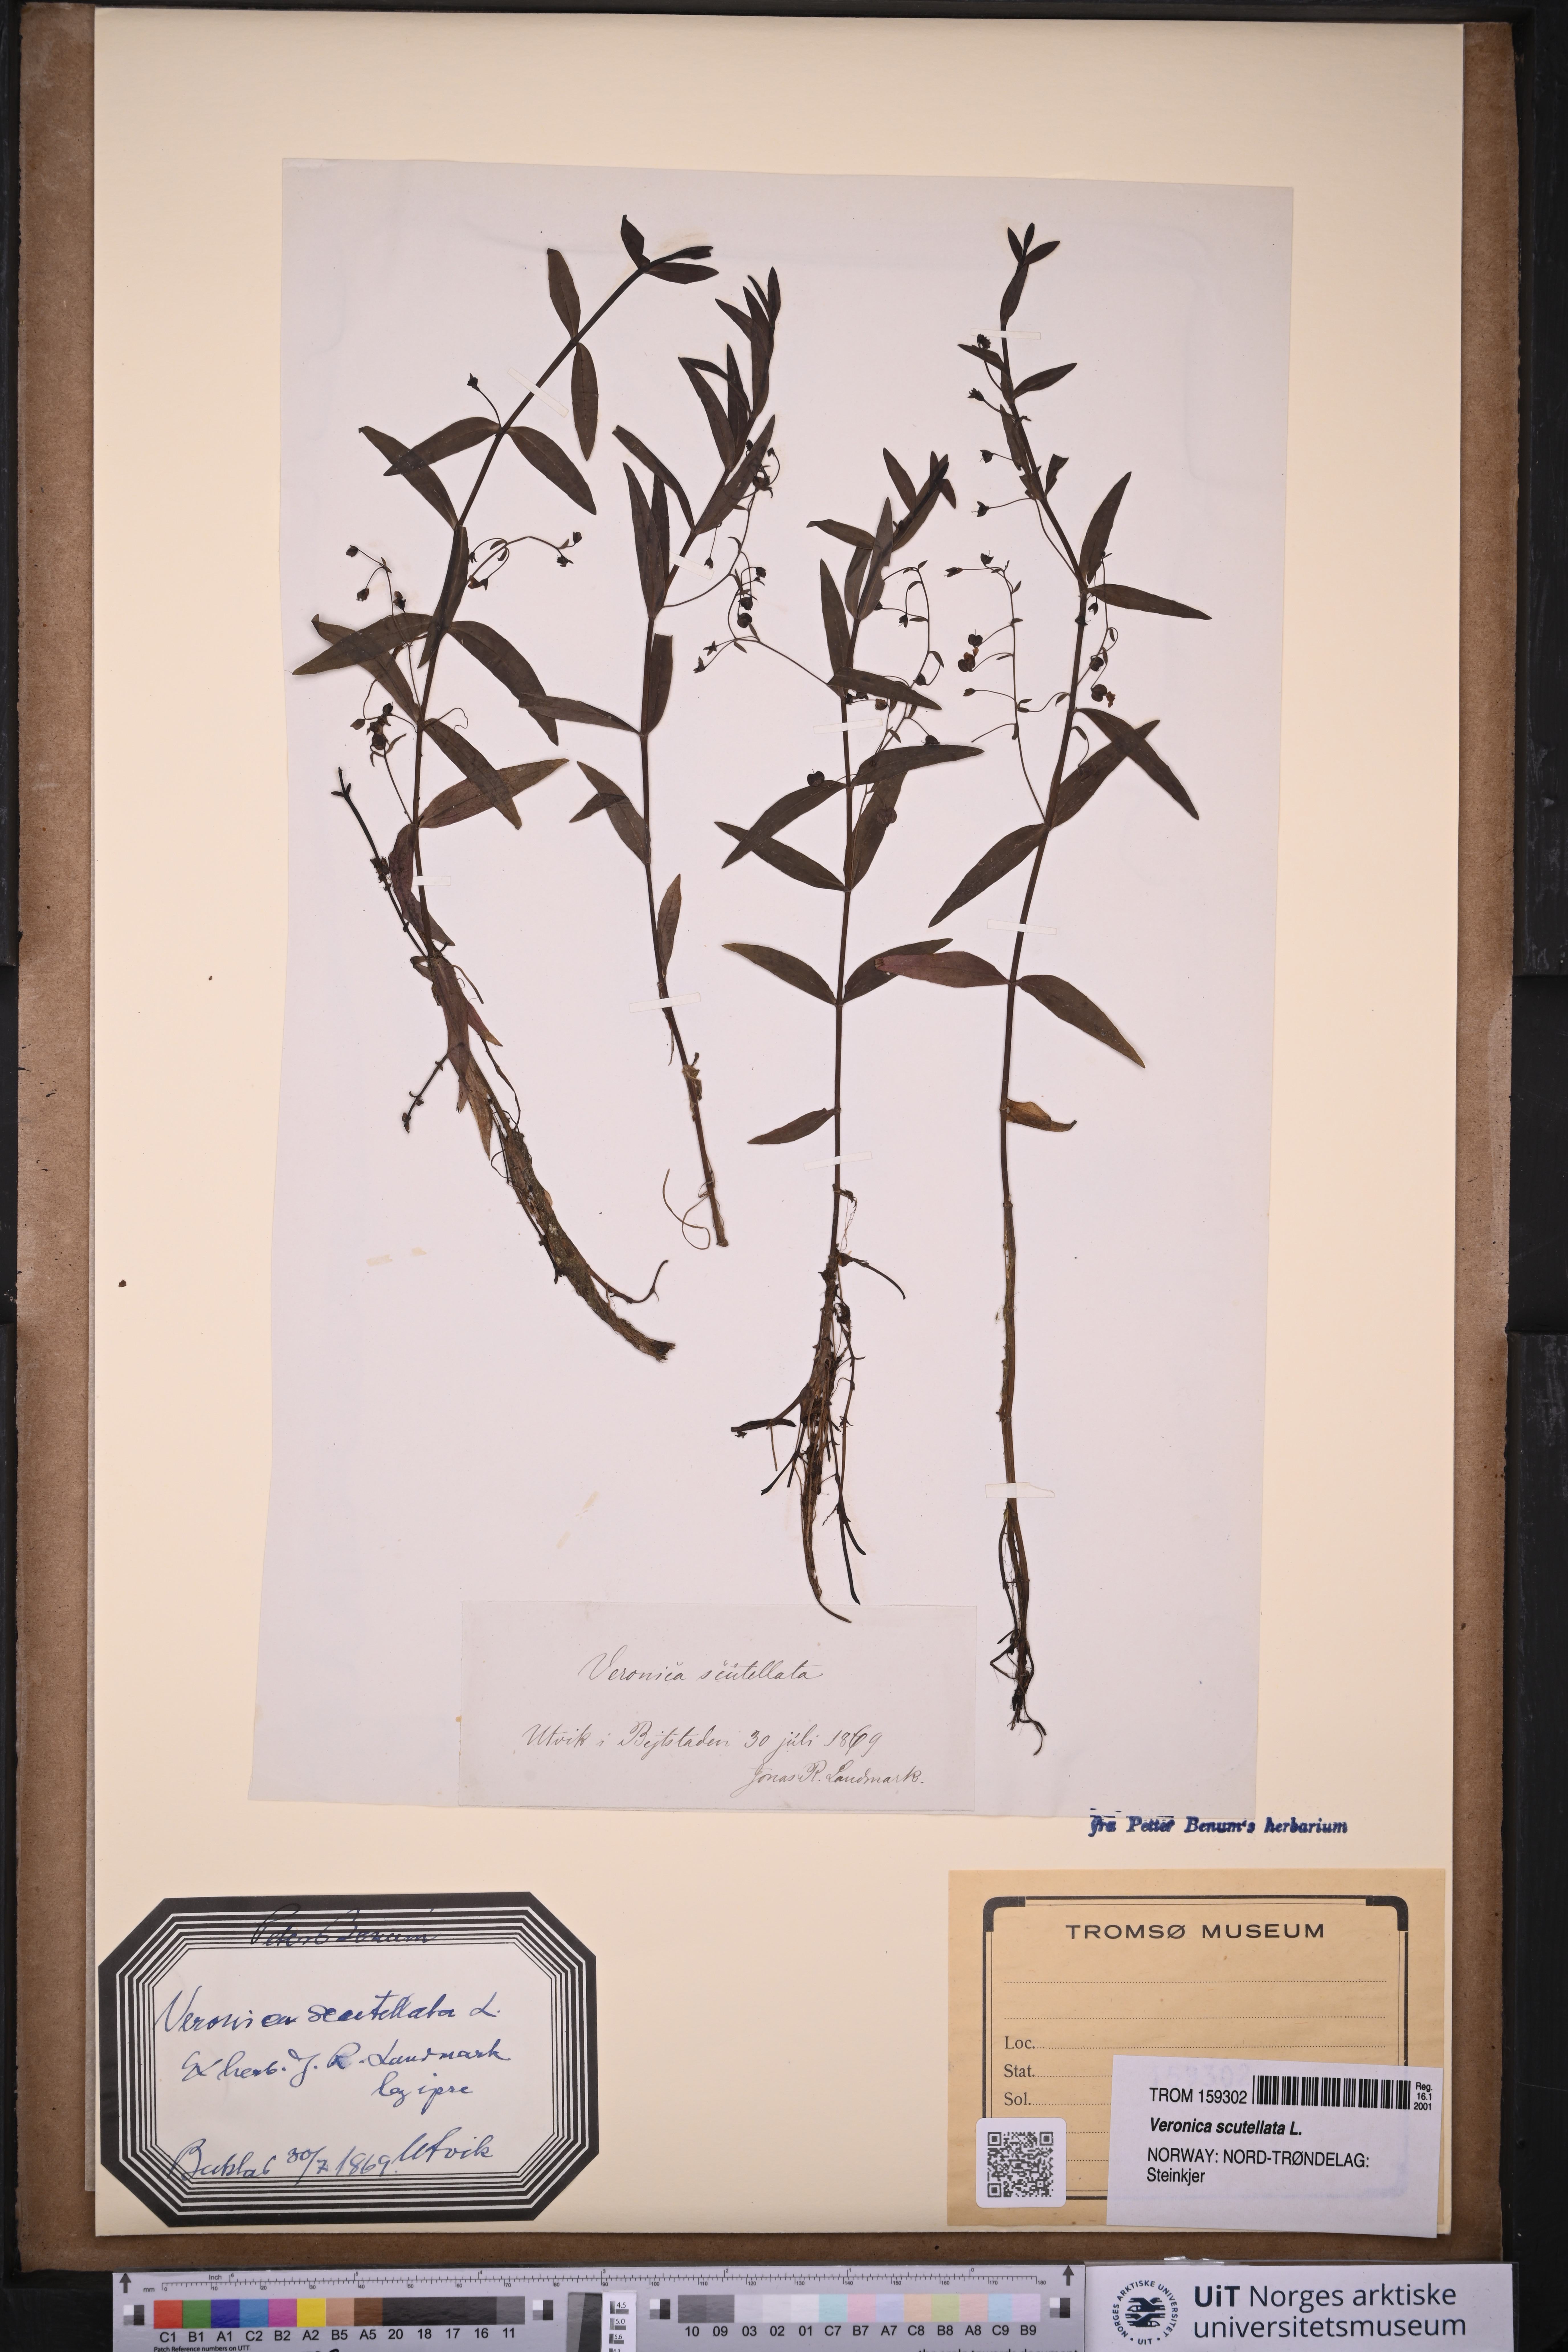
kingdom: Plantae
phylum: Tracheophyta
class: Magnoliopsida
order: Lamiales
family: Plantaginaceae
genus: Veronica
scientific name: Veronica scutellata
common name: Marsh speedwell
